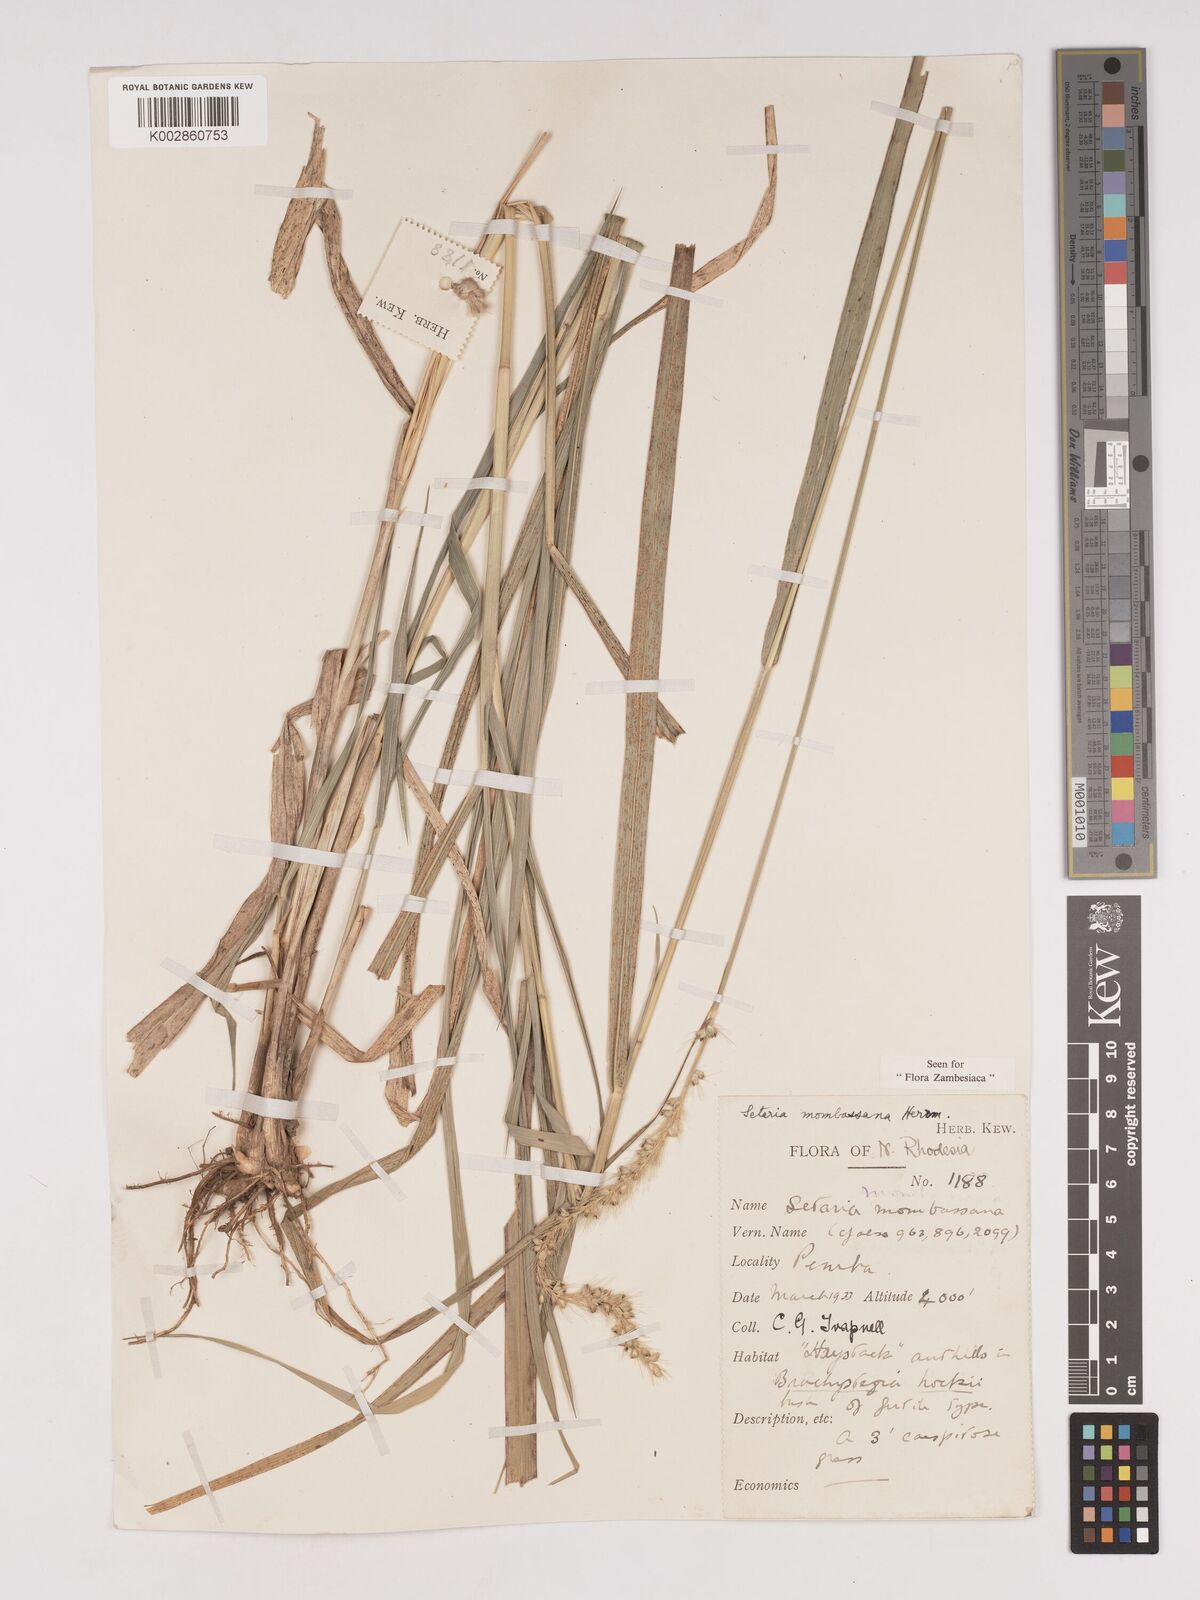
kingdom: Plantae
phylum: Tracheophyta
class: Liliopsida
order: Poales
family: Poaceae
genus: Setaria
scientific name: Setaria incrassata
